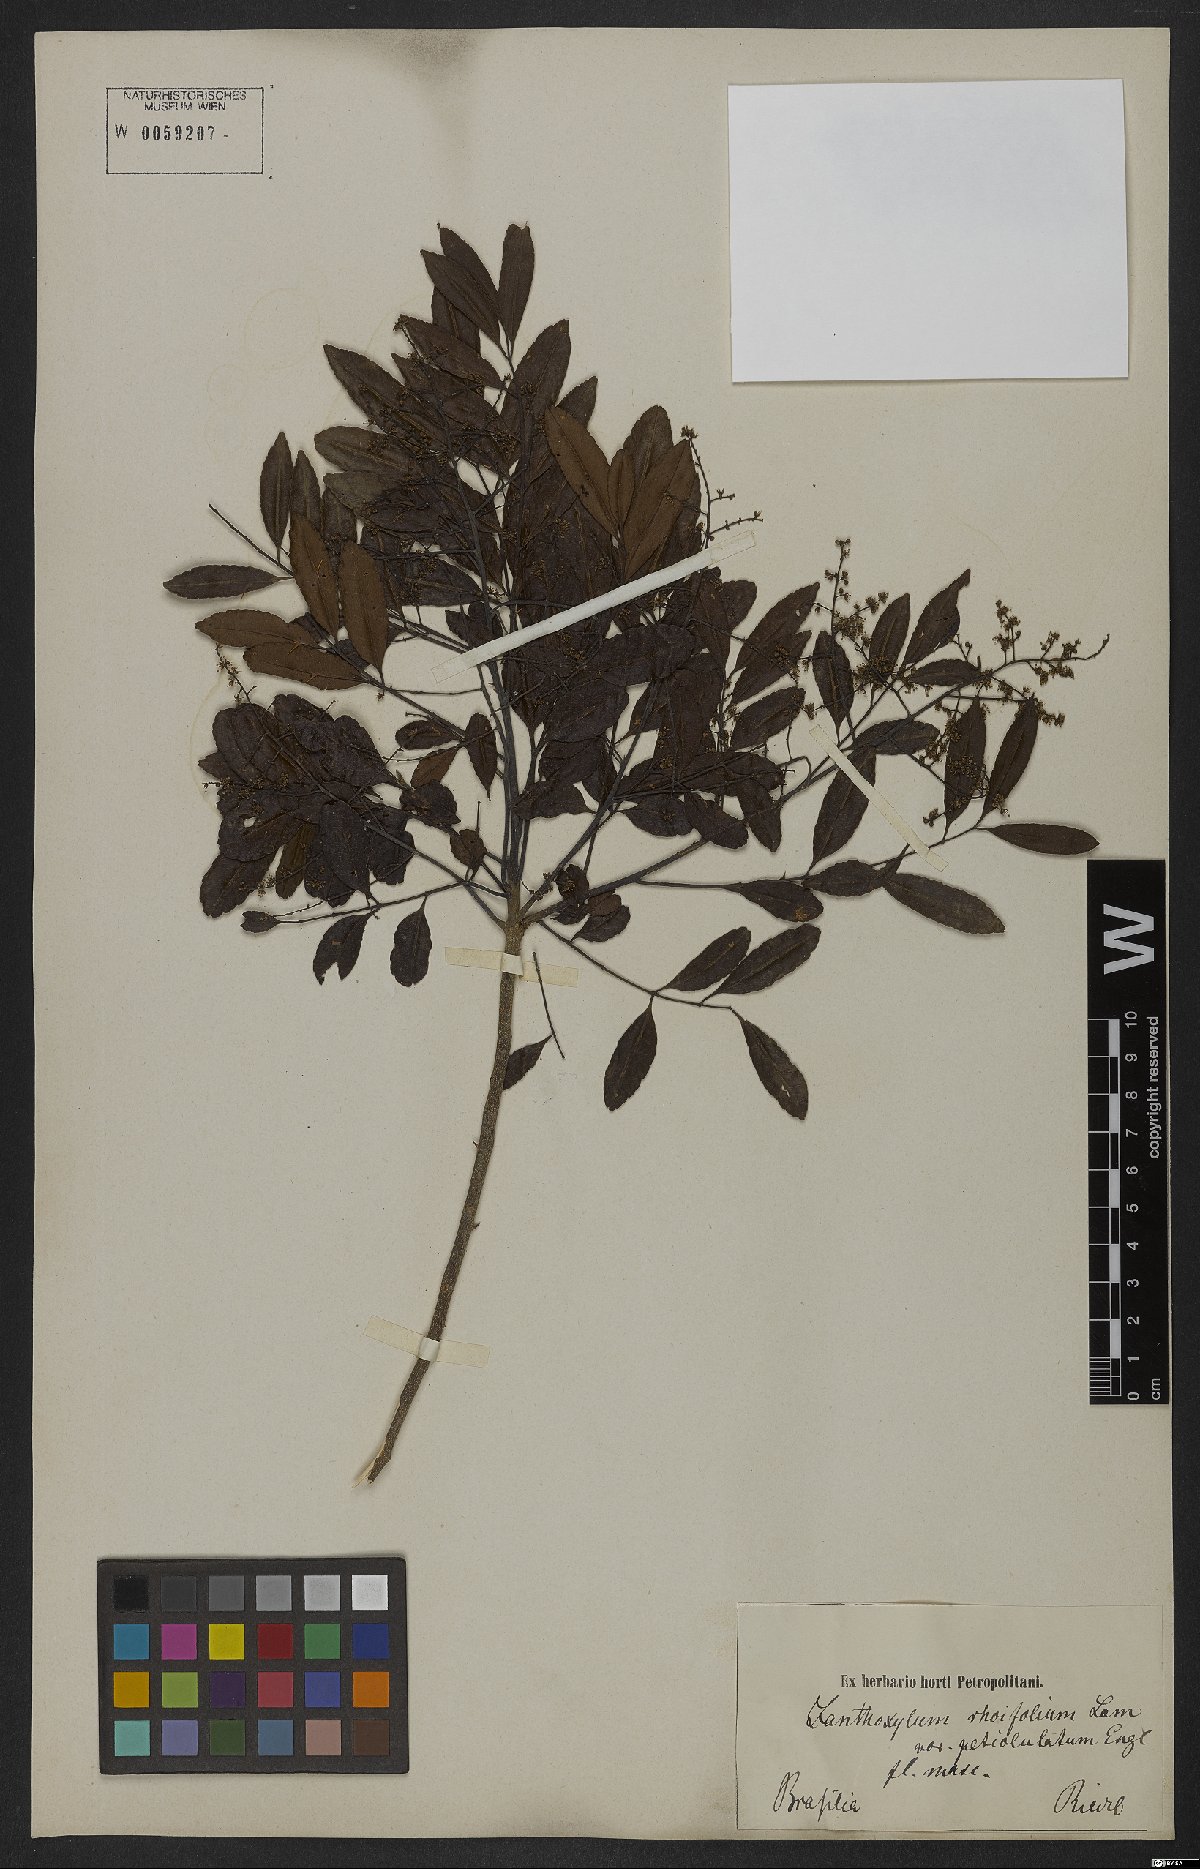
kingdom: Plantae
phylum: Tracheophyta
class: Magnoliopsida
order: Sapindales
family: Rutaceae
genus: Zanthoxylum
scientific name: Zanthoxylum rhoifolium
